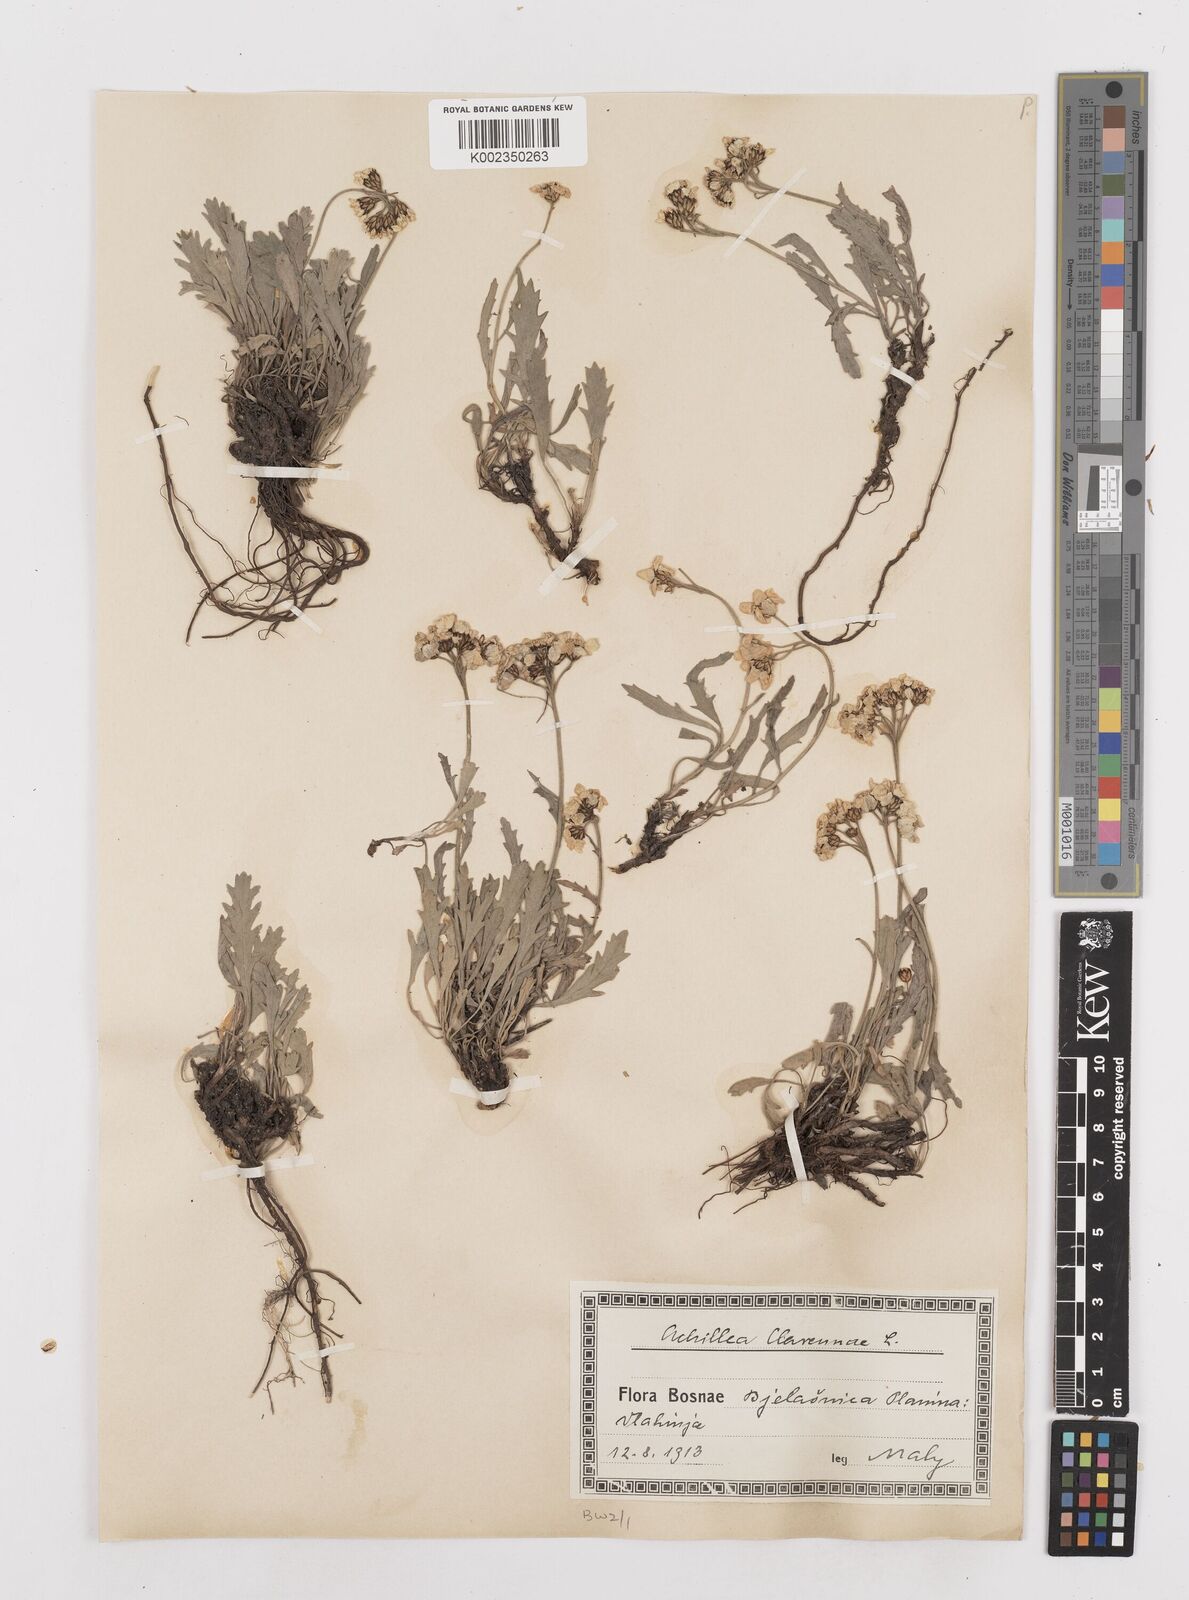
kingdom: Plantae
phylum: Tracheophyta
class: Magnoliopsida
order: Asterales
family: Asteraceae
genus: Achillea
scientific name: Achillea clavennae
